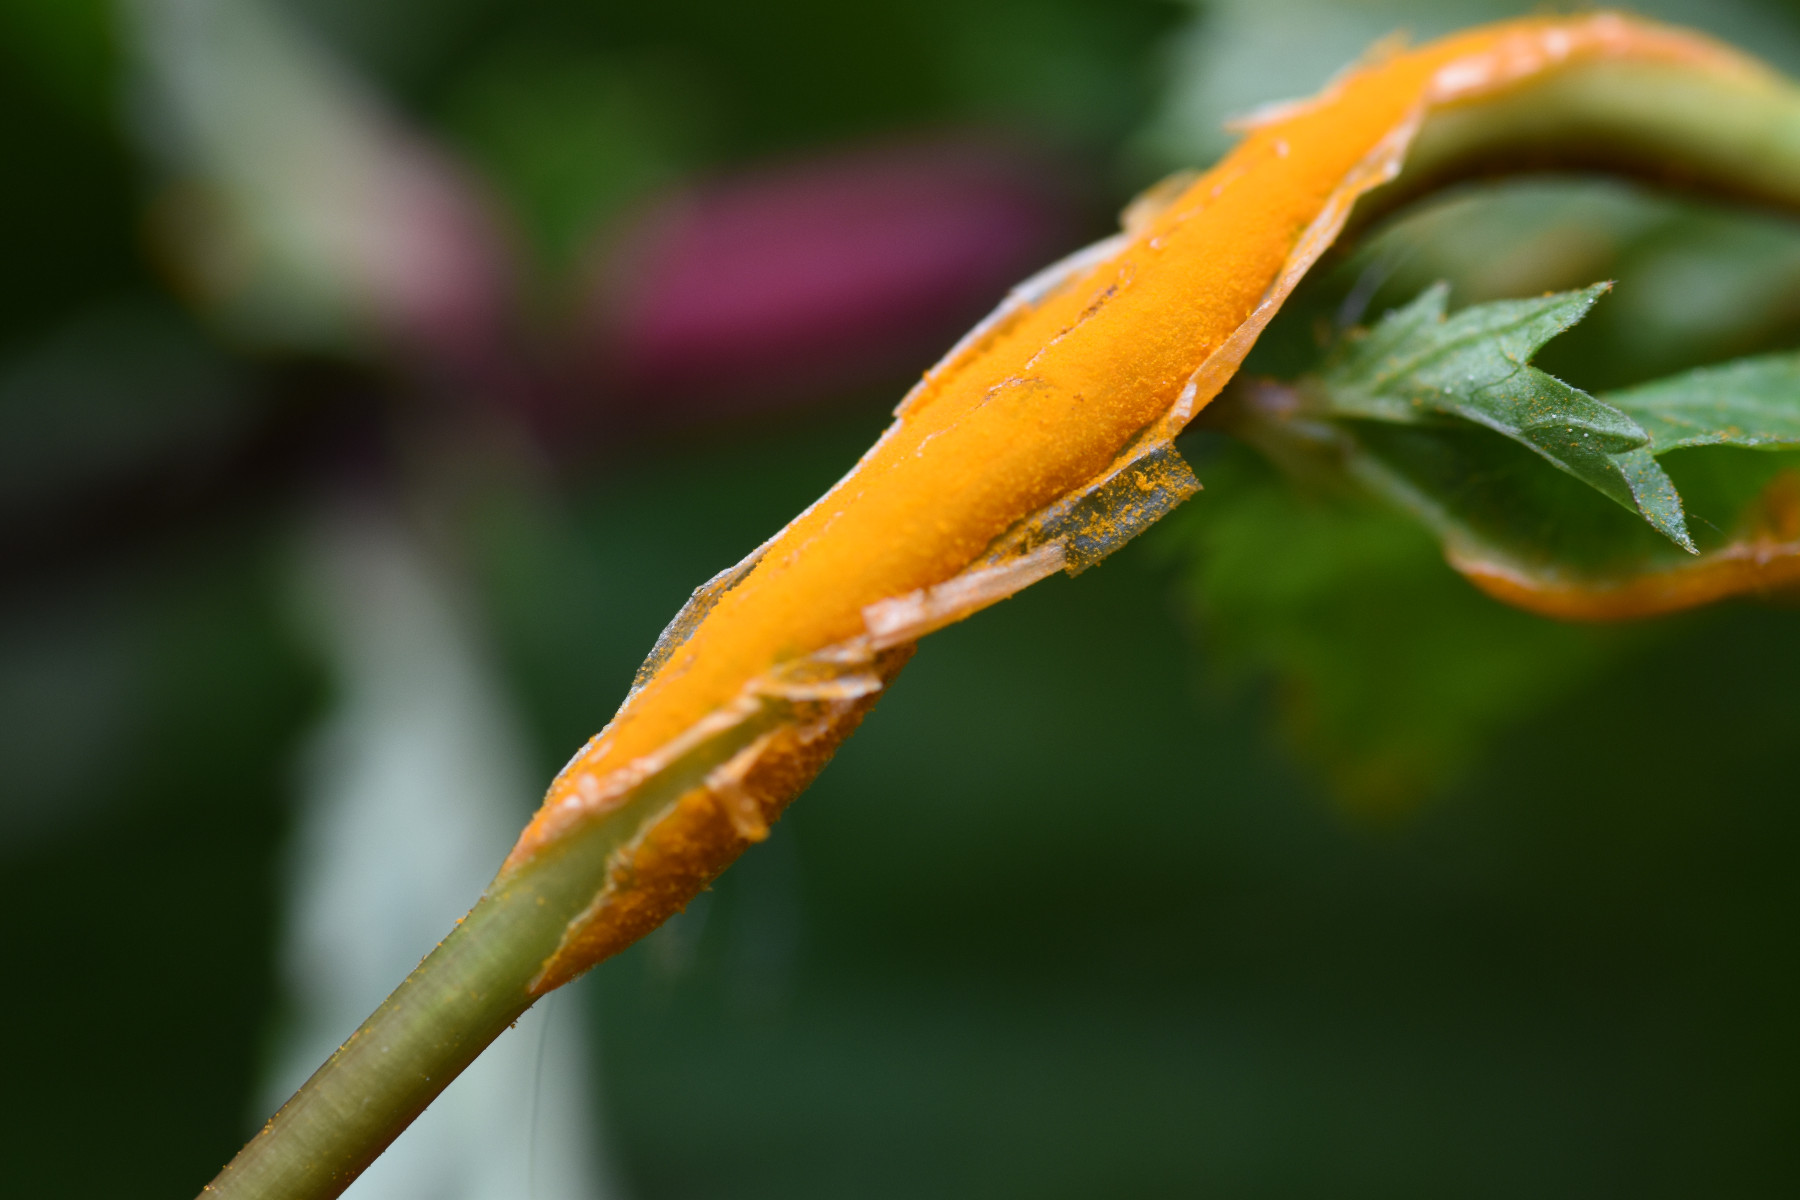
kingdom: Fungi
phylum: Basidiomycota
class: Pucciniomycetes
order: Pucciniales
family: Raveneliaceae
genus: Triphragmium
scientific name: Triphragmium ulmariae
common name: almindelig mjødurtrust
